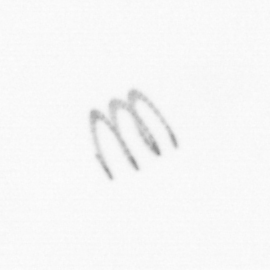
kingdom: Chromista
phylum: Ochrophyta
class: Bacillariophyceae
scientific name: Bacillariophyceae
